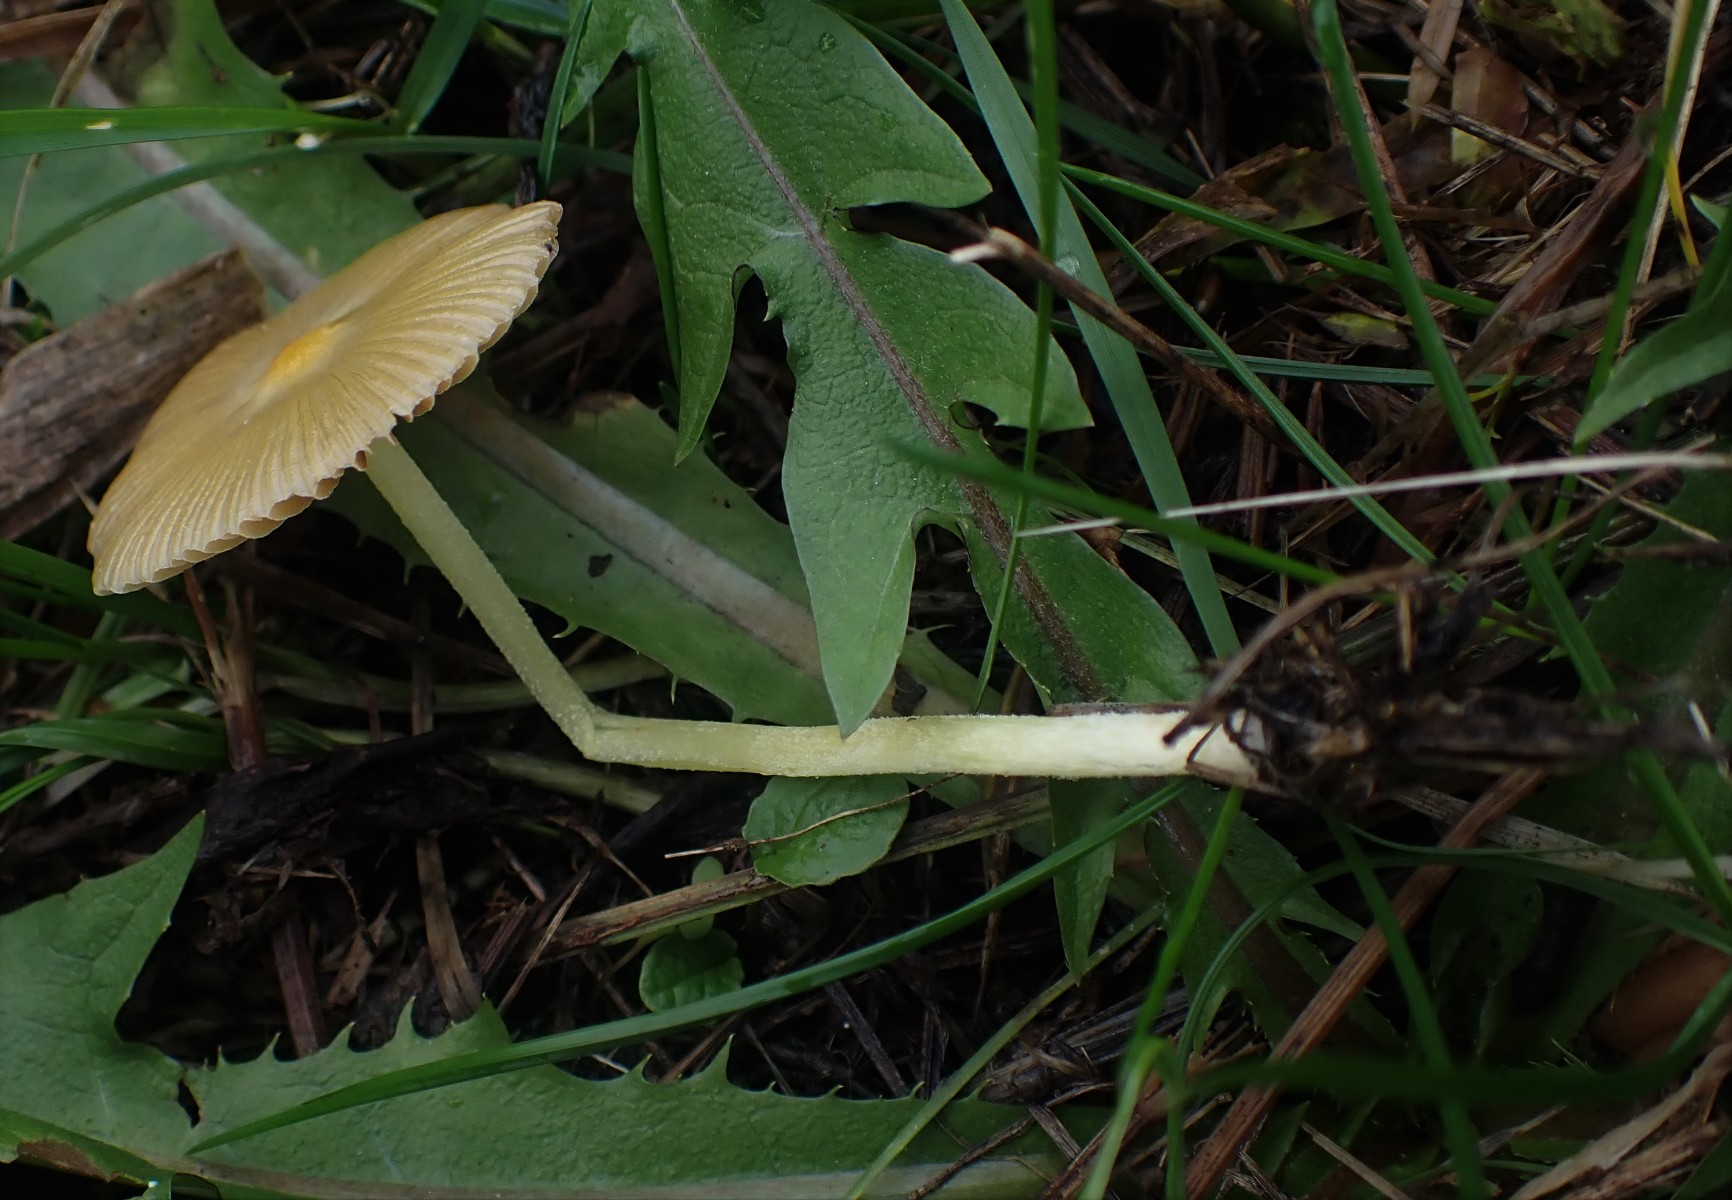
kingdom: Fungi
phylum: Basidiomycota
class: Agaricomycetes
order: Agaricales
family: Bolbitiaceae
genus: Bolbitius
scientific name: Bolbitius titubans
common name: almindelig gulhat
